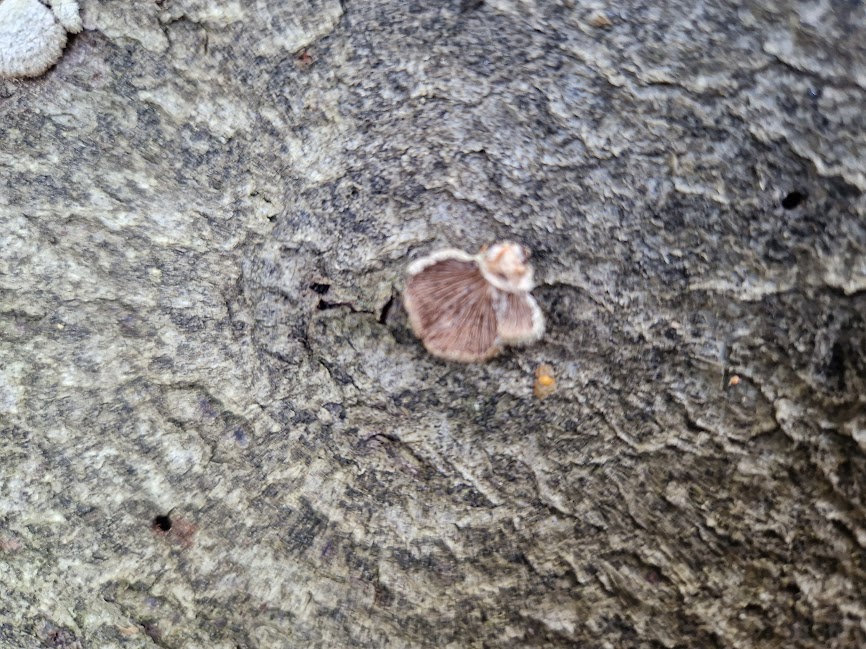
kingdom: Fungi
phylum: Basidiomycota
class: Agaricomycetes
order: Agaricales
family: Schizophyllaceae
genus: Schizophyllum
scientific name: Schizophyllum commune
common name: kløvblad
